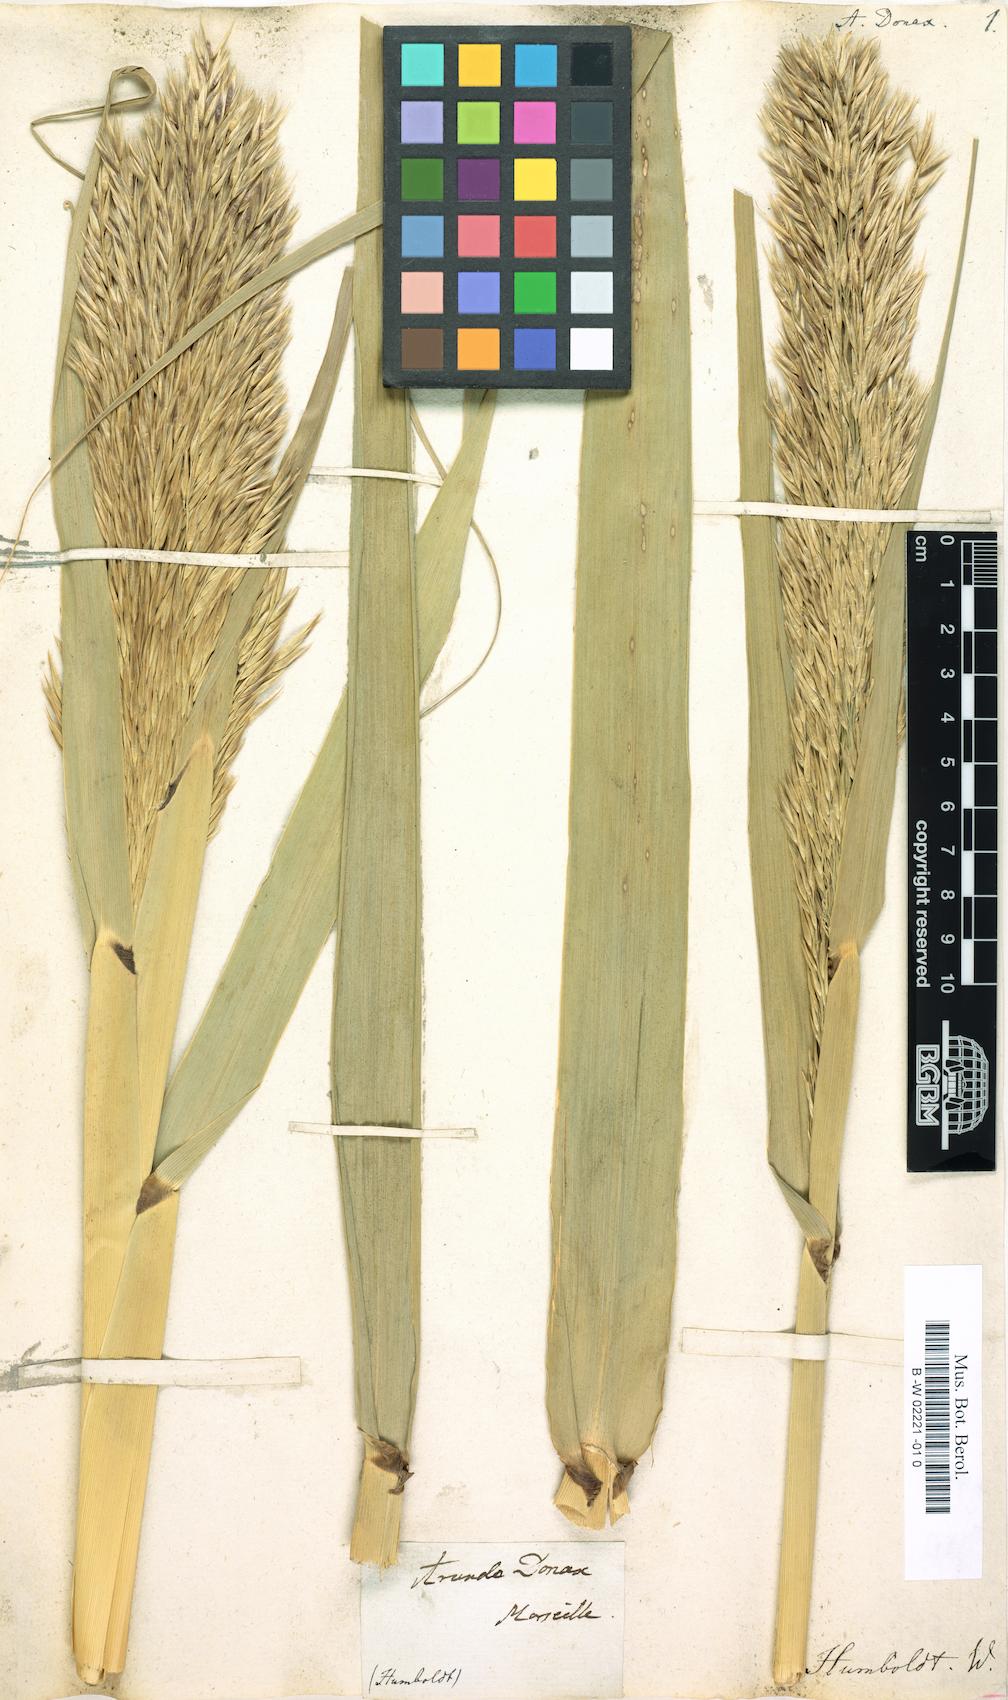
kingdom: Plantae
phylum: Tracheophyta
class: Liliopsida
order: Poales
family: Poaceae
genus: Arundo
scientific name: Arundo donax
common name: Giant reed
